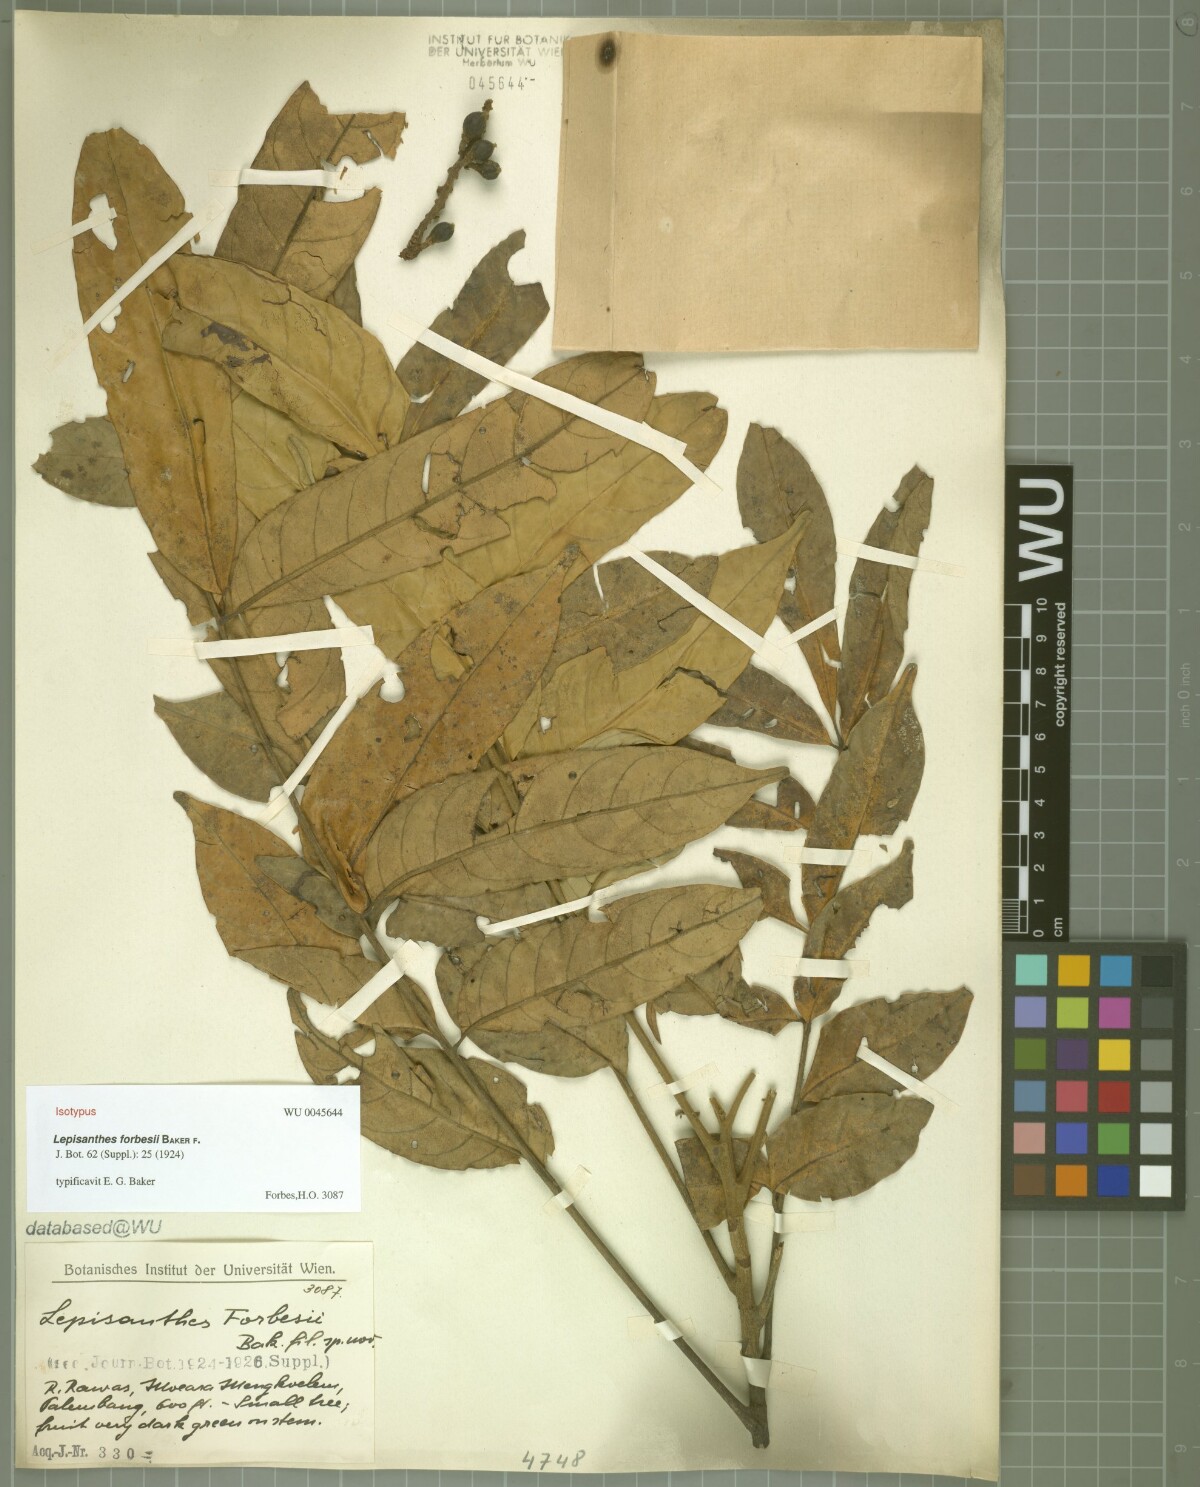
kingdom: Plantae
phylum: Tracheophyta
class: Magnoliopsida
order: Sapindales
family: Meliaceae
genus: Epicharis
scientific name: Epicharis cuneata
